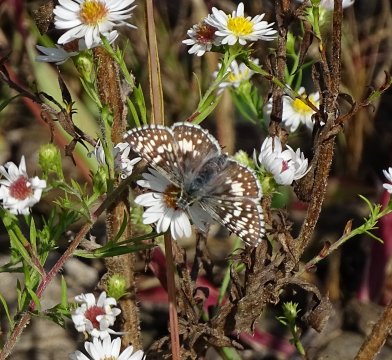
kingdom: Animalia
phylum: Arthropoda
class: Insecta
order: Lepidoptera
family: Hesperiidae
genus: Pyrgus
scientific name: Pyrgus communis
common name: Common Checkered-Skipper
